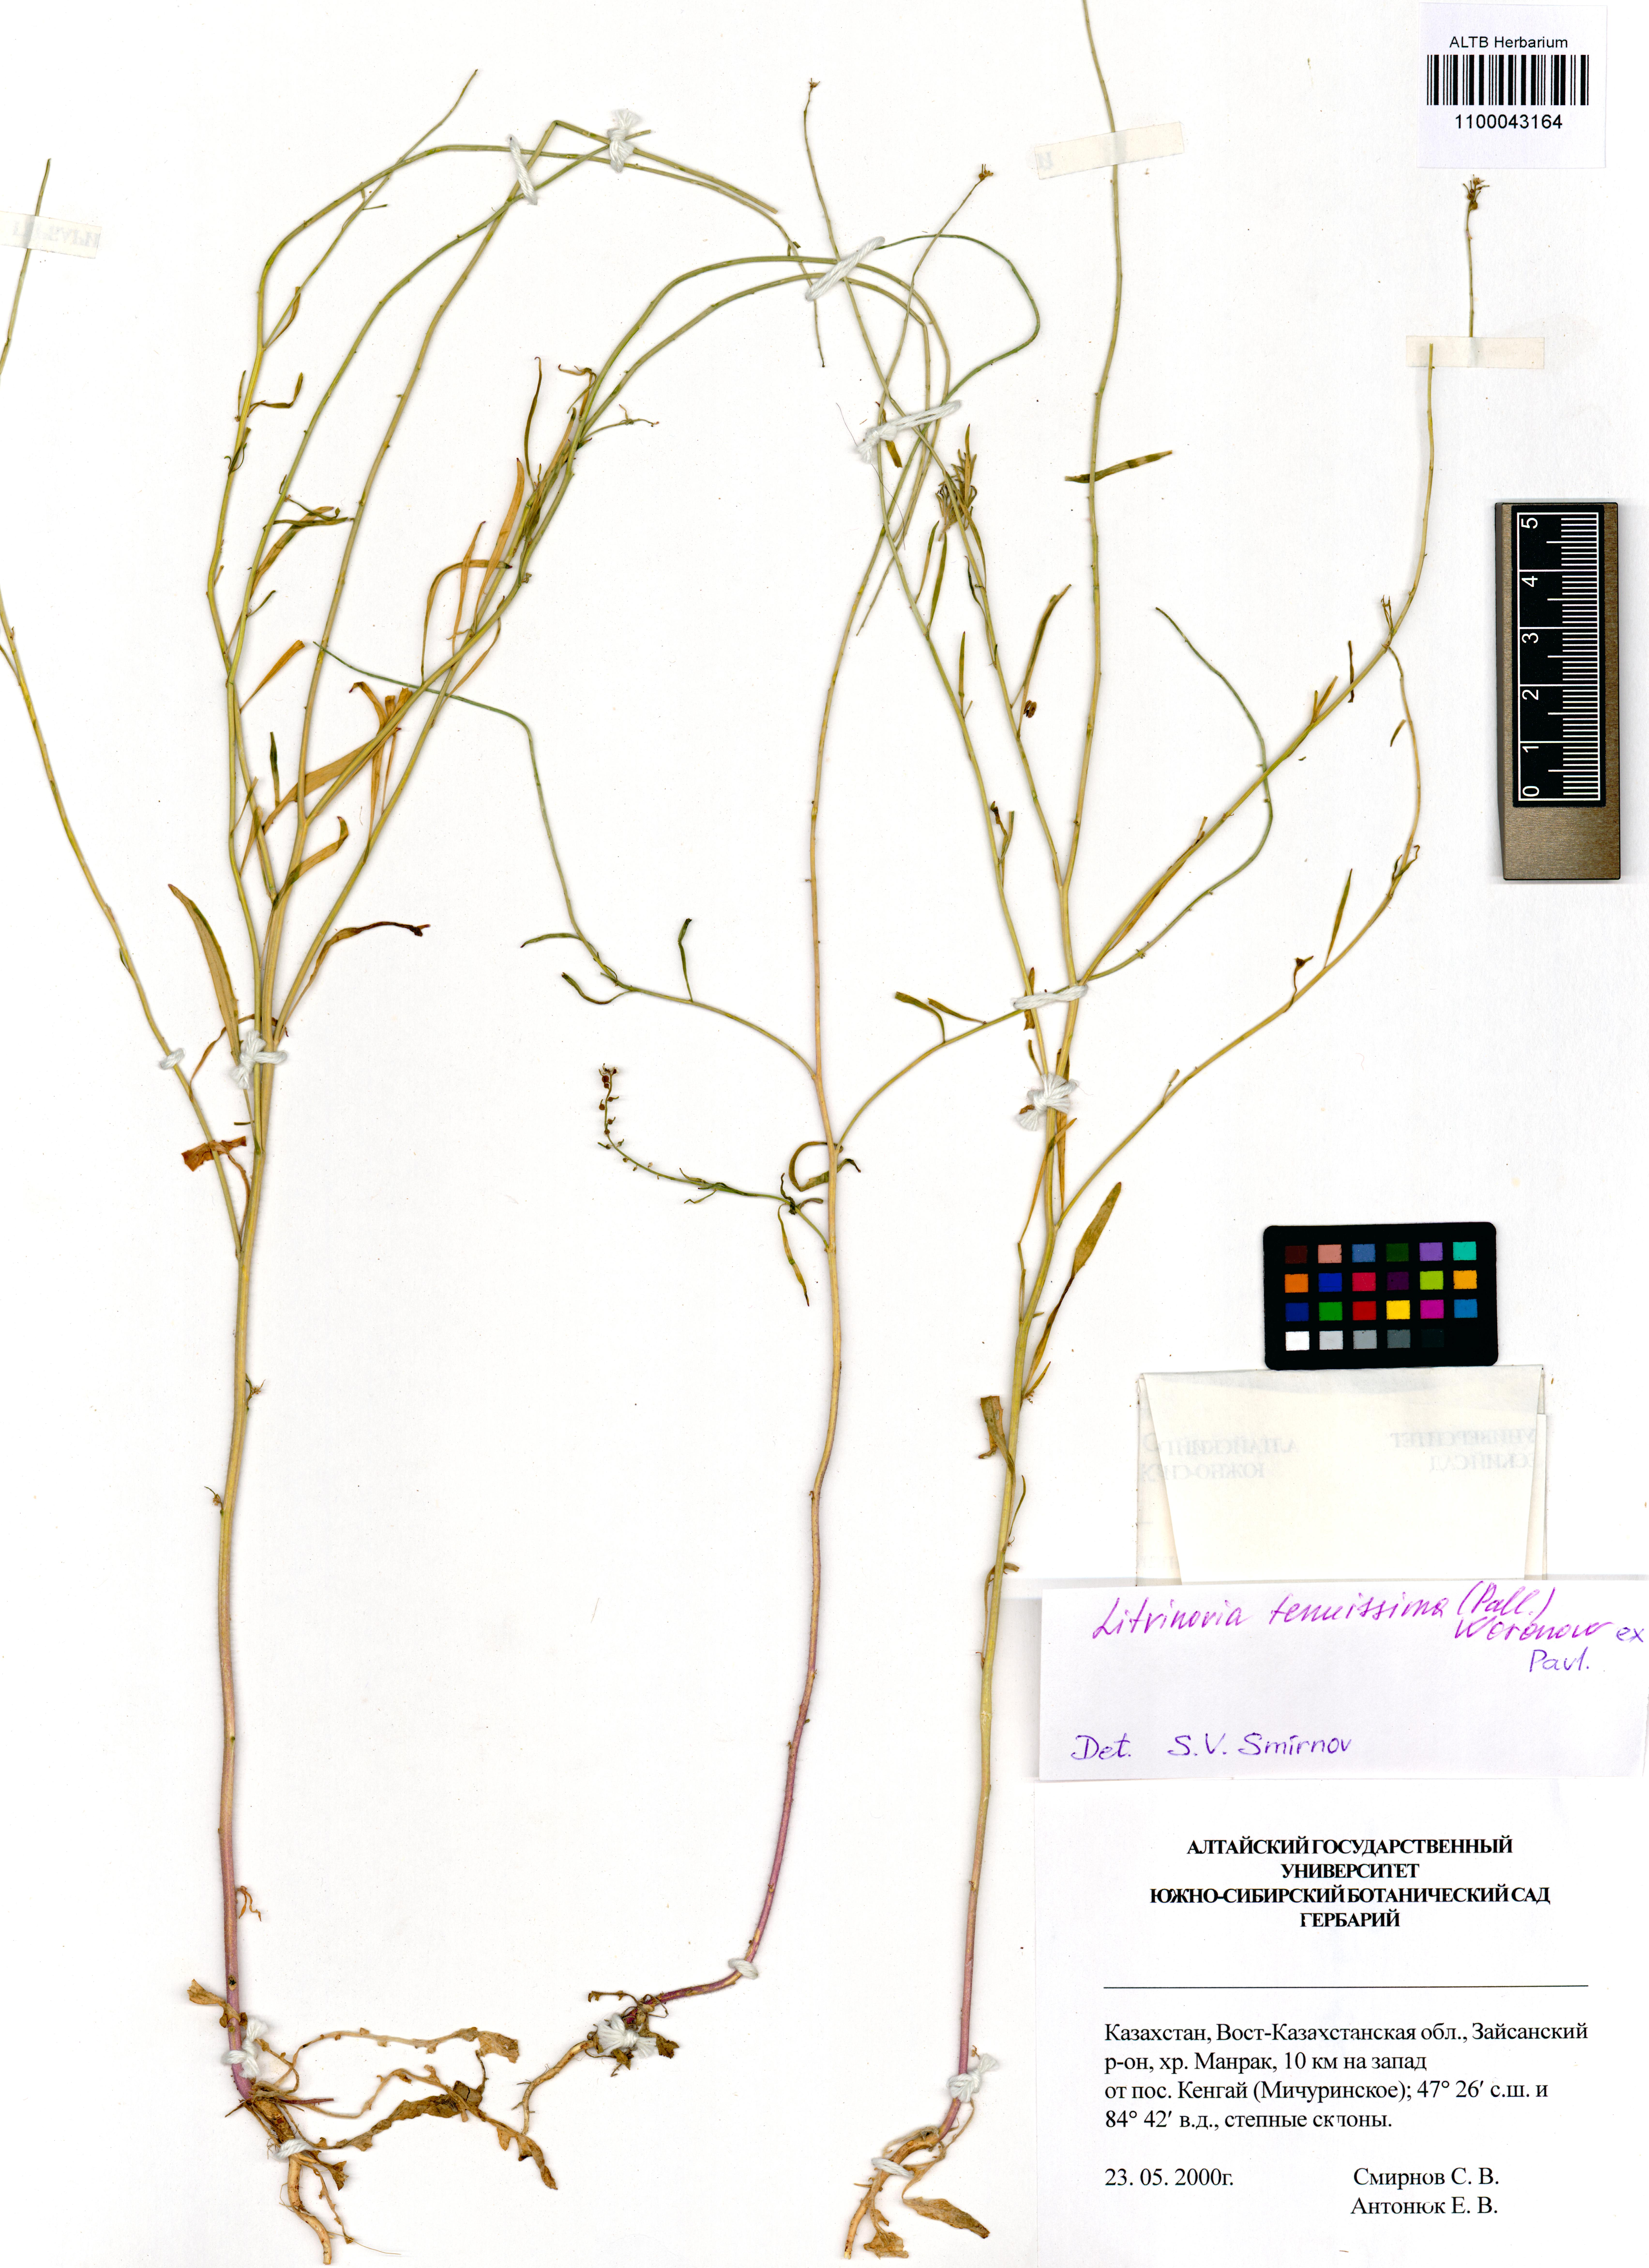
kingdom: Plantae
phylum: Tracheophyta
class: Magnoliopsida
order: Brassicales
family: Brassicaceae
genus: Litwinowia
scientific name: Litwinowia tenuissima
